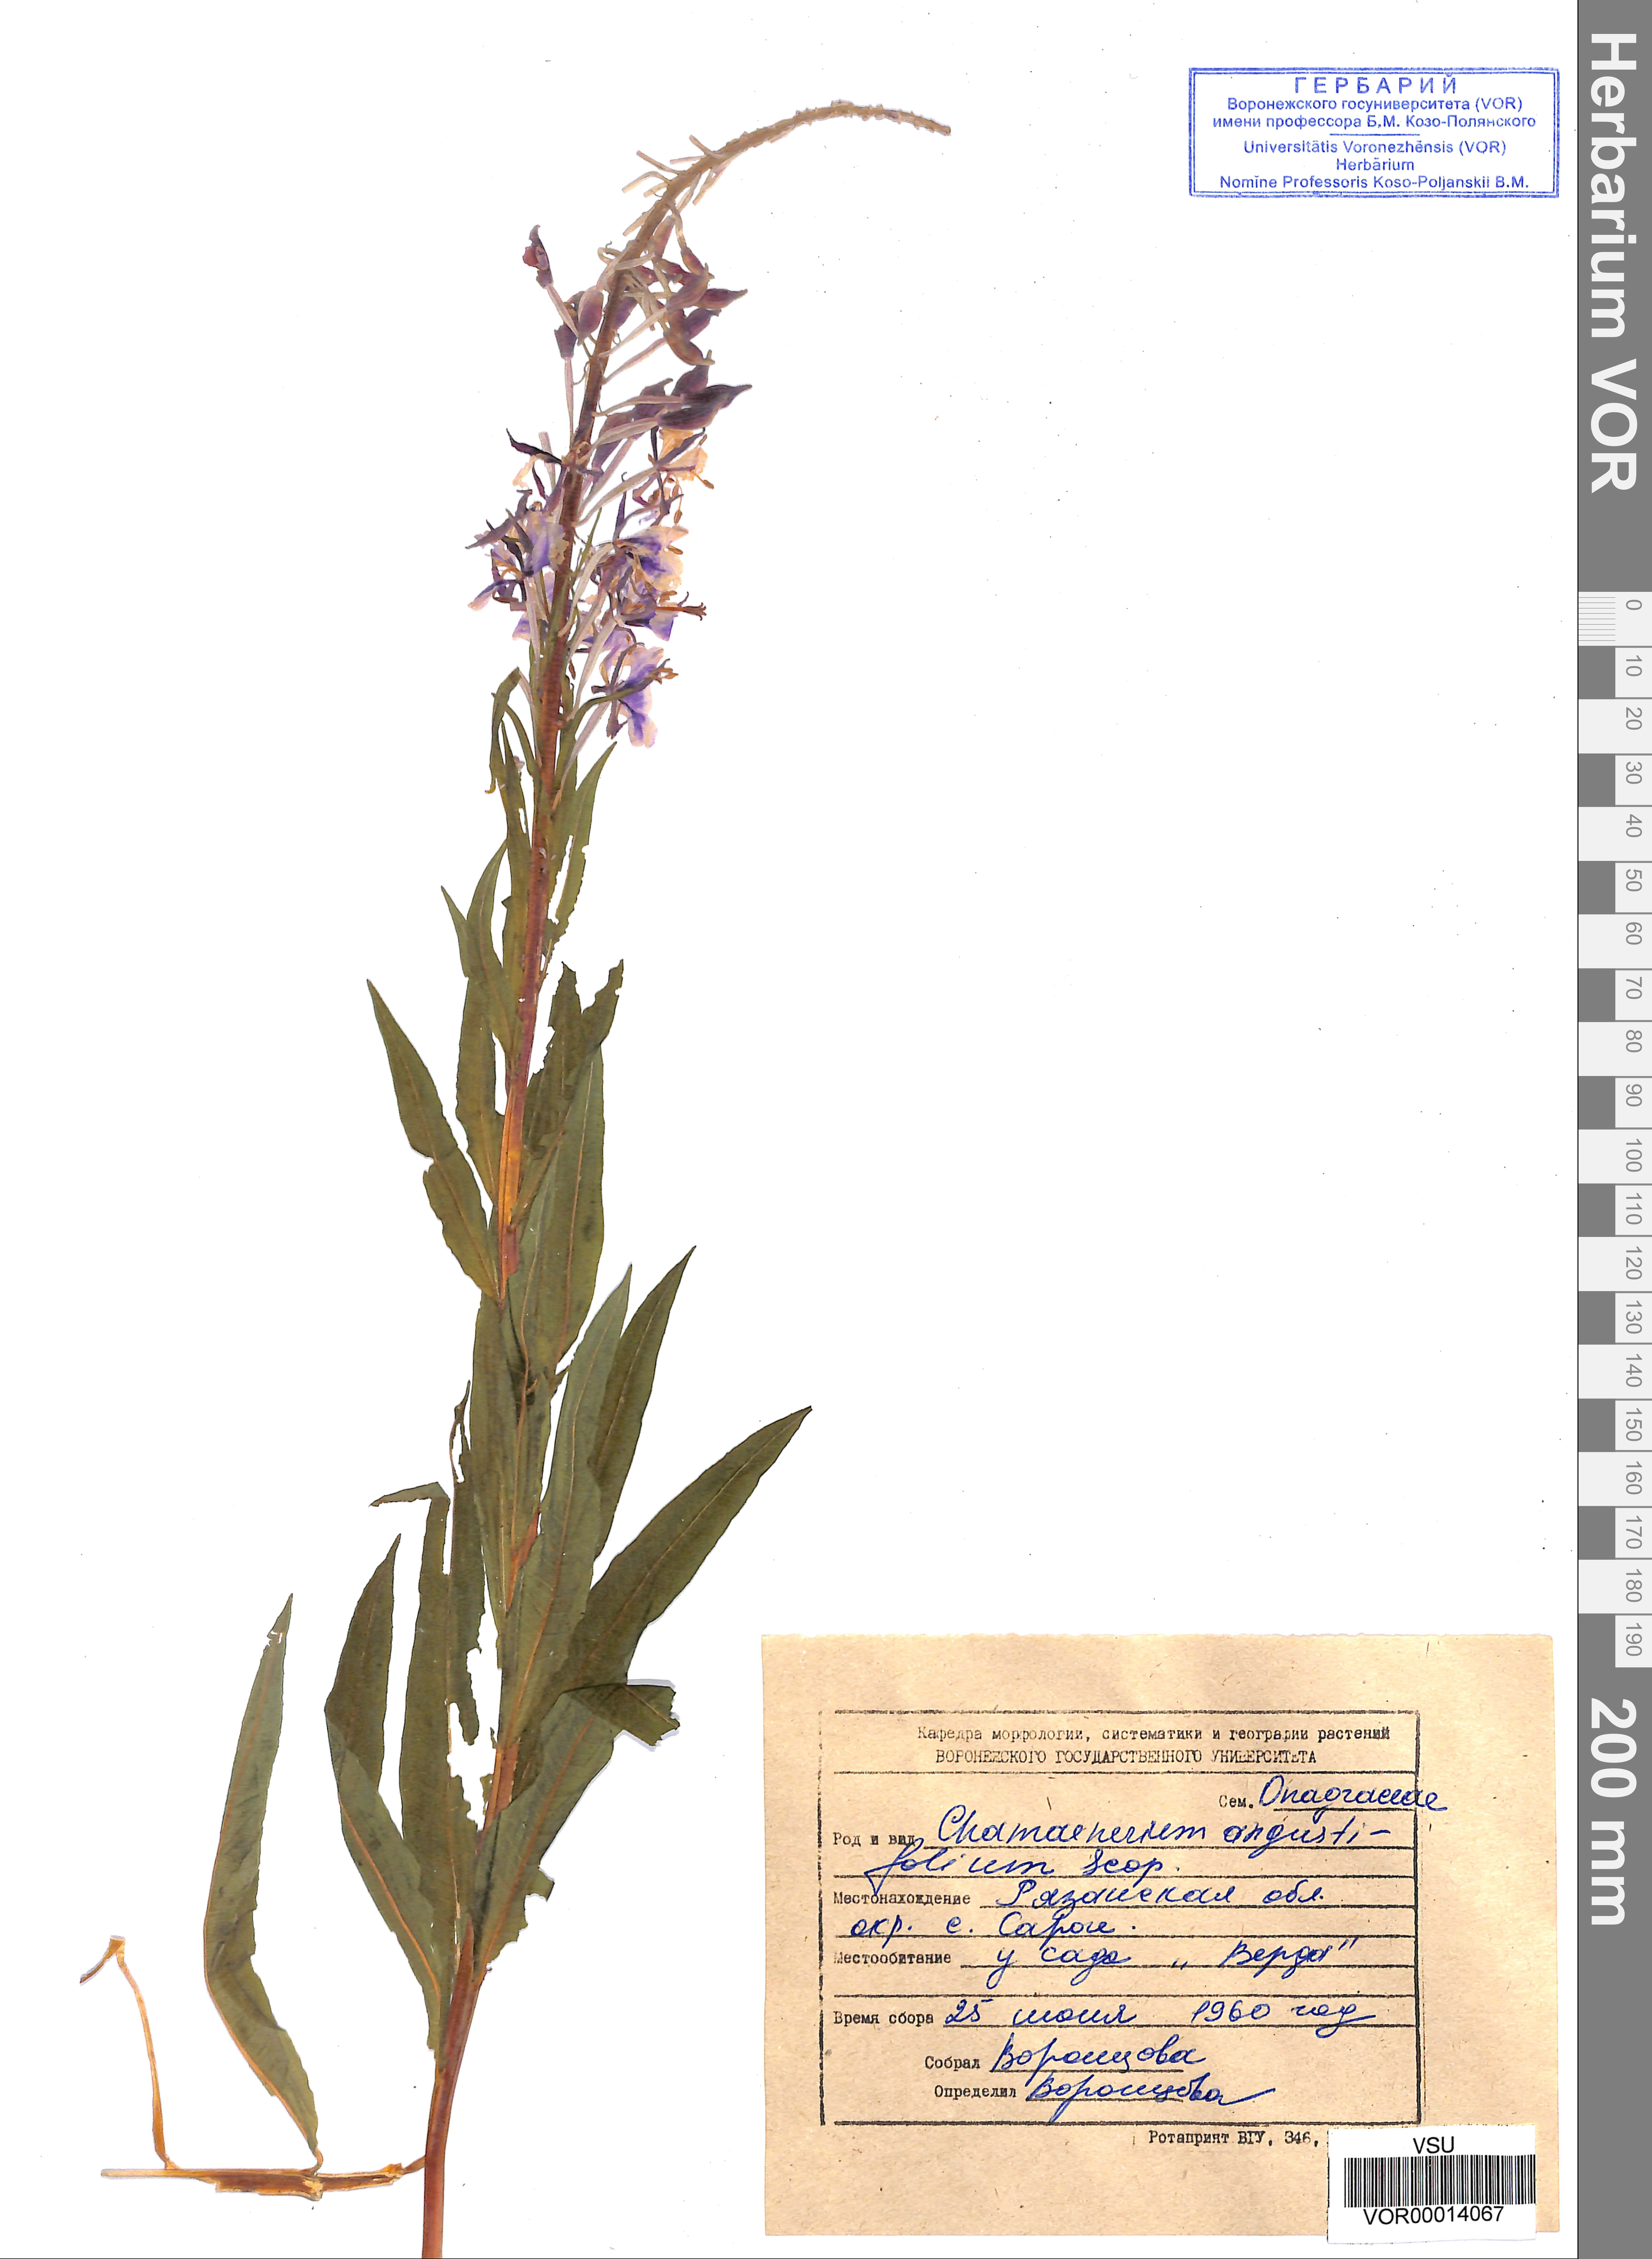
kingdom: Plantae
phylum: Tracheophyta
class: Magnoliopsida
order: Myrtales
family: Onagraceae
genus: Chamaenerion
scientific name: Chamaenerion angustifolium
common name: Fireweed
